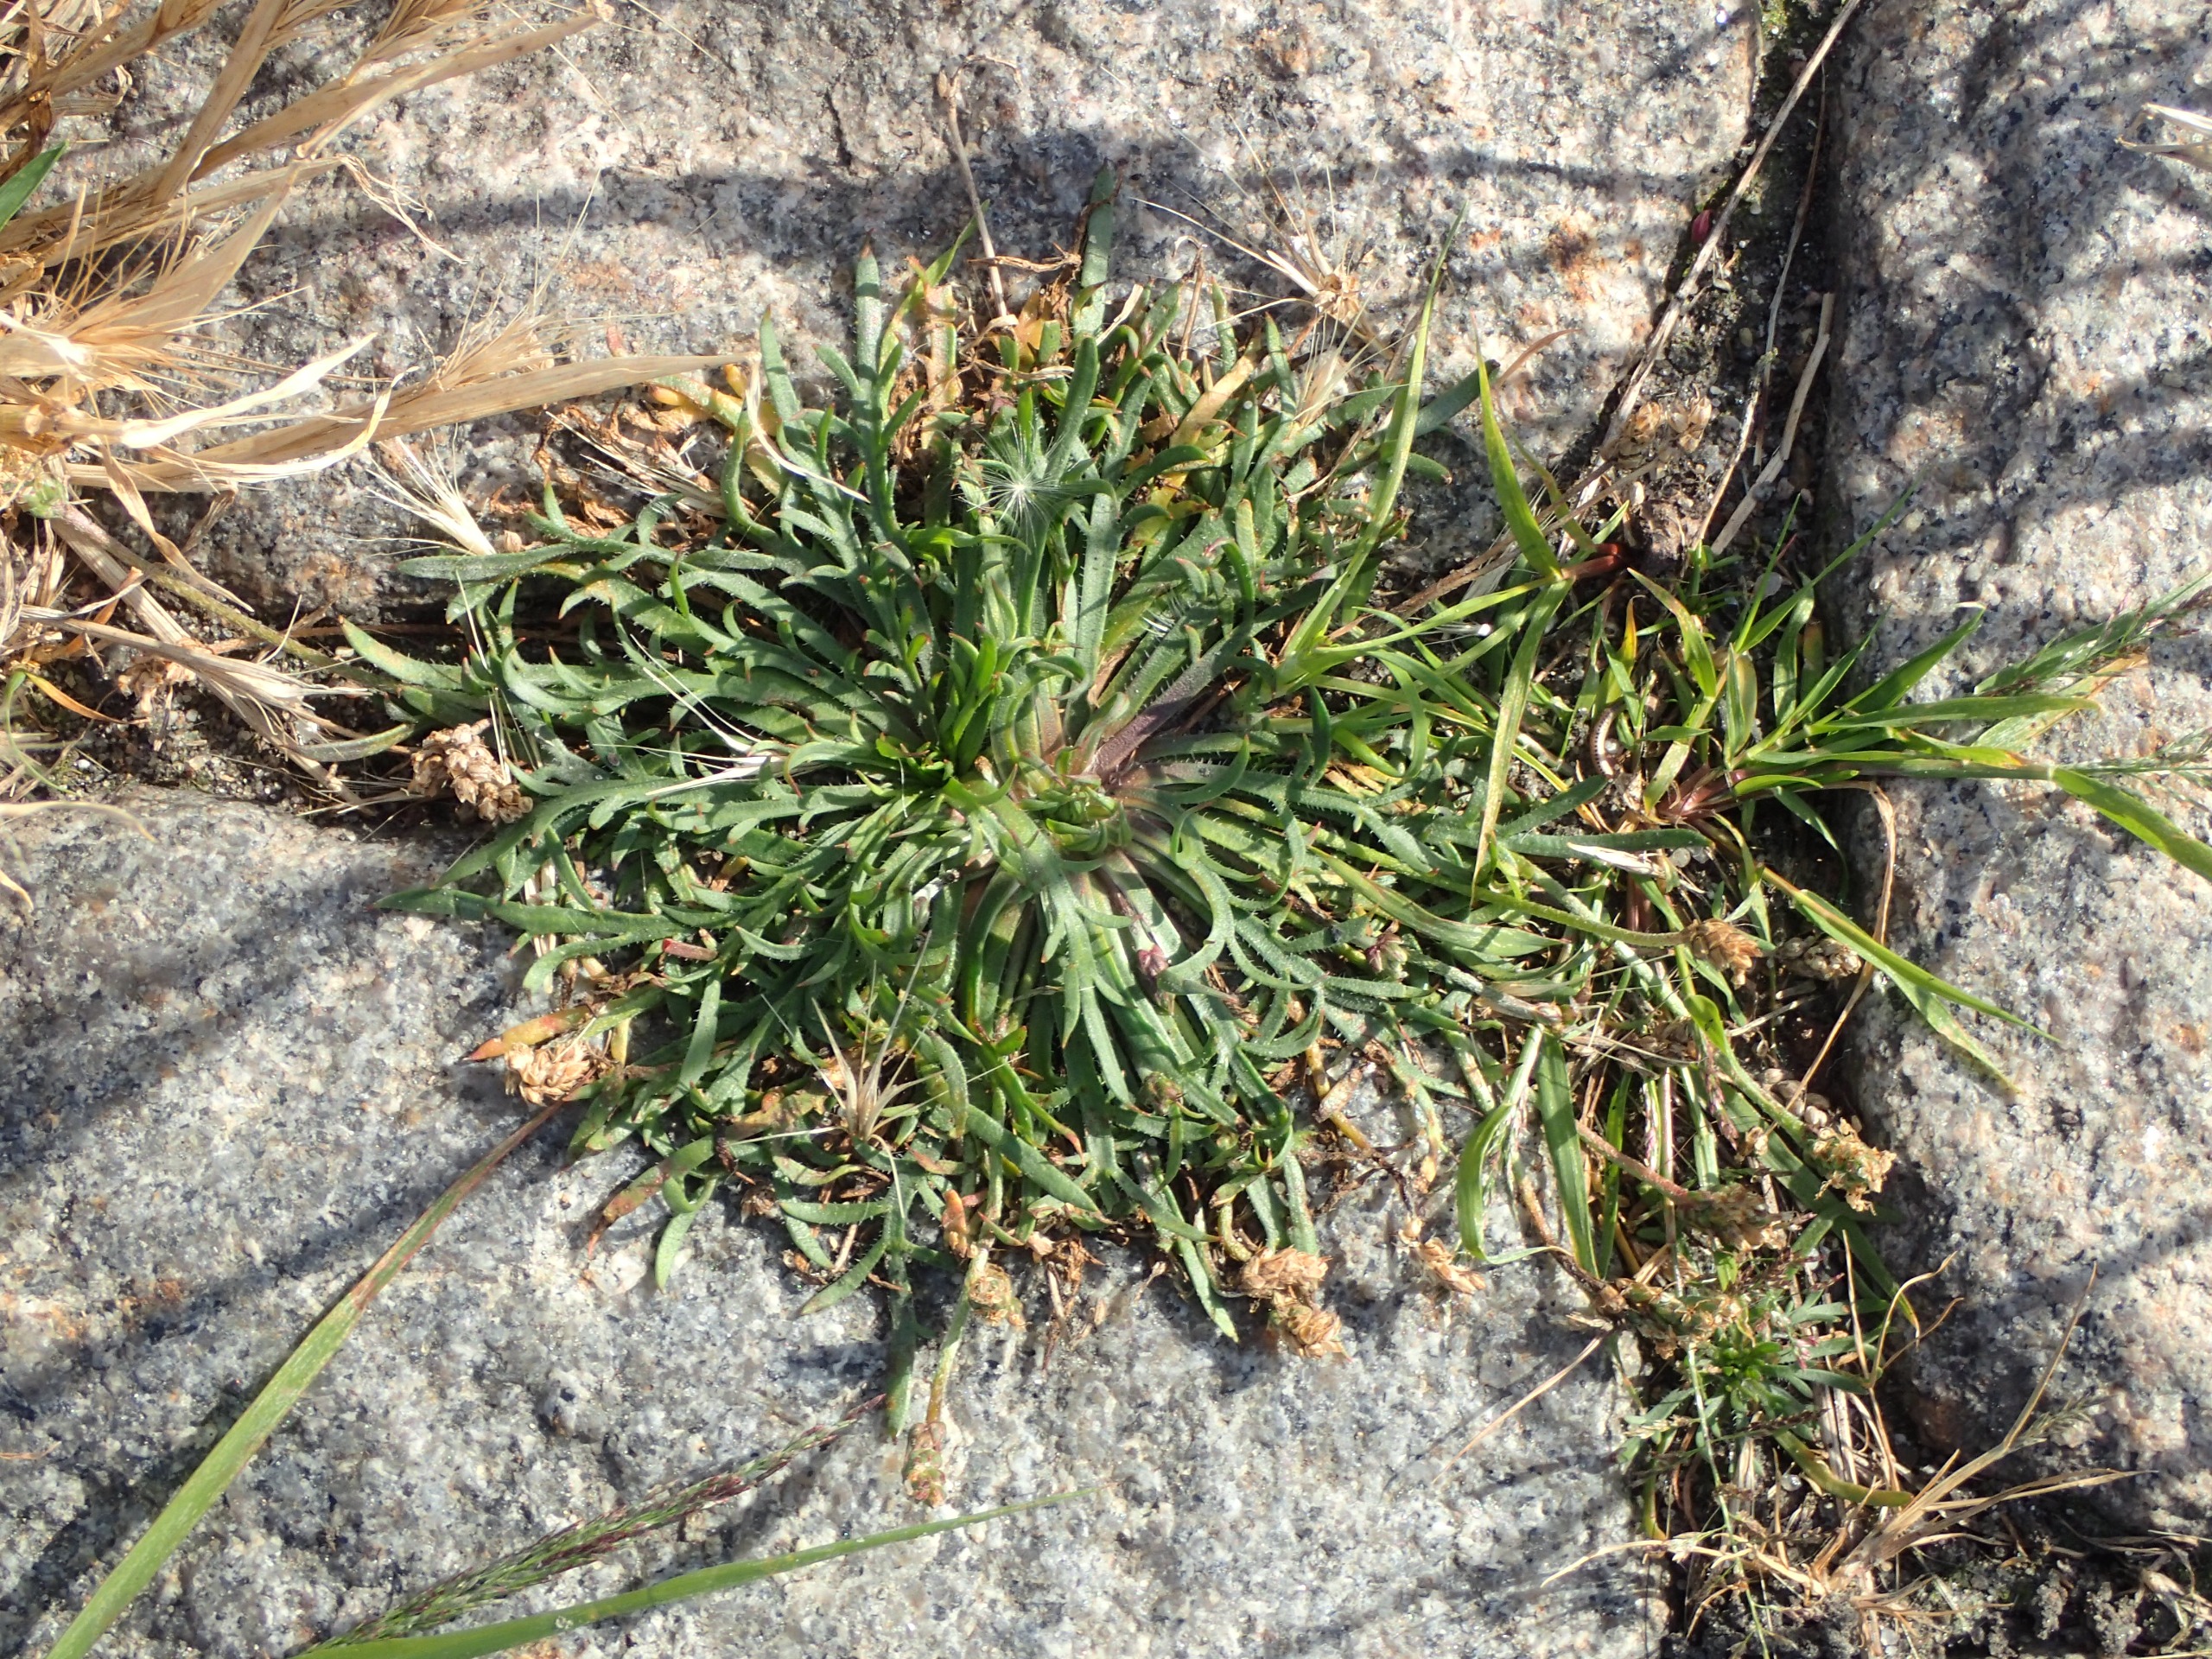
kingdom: Plantae
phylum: Tracheophyta
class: Magnoliopsida
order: Lamiales
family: Plantaginaceae
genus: Plantago
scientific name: Plantago coronopus
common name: Fliget vejbred
